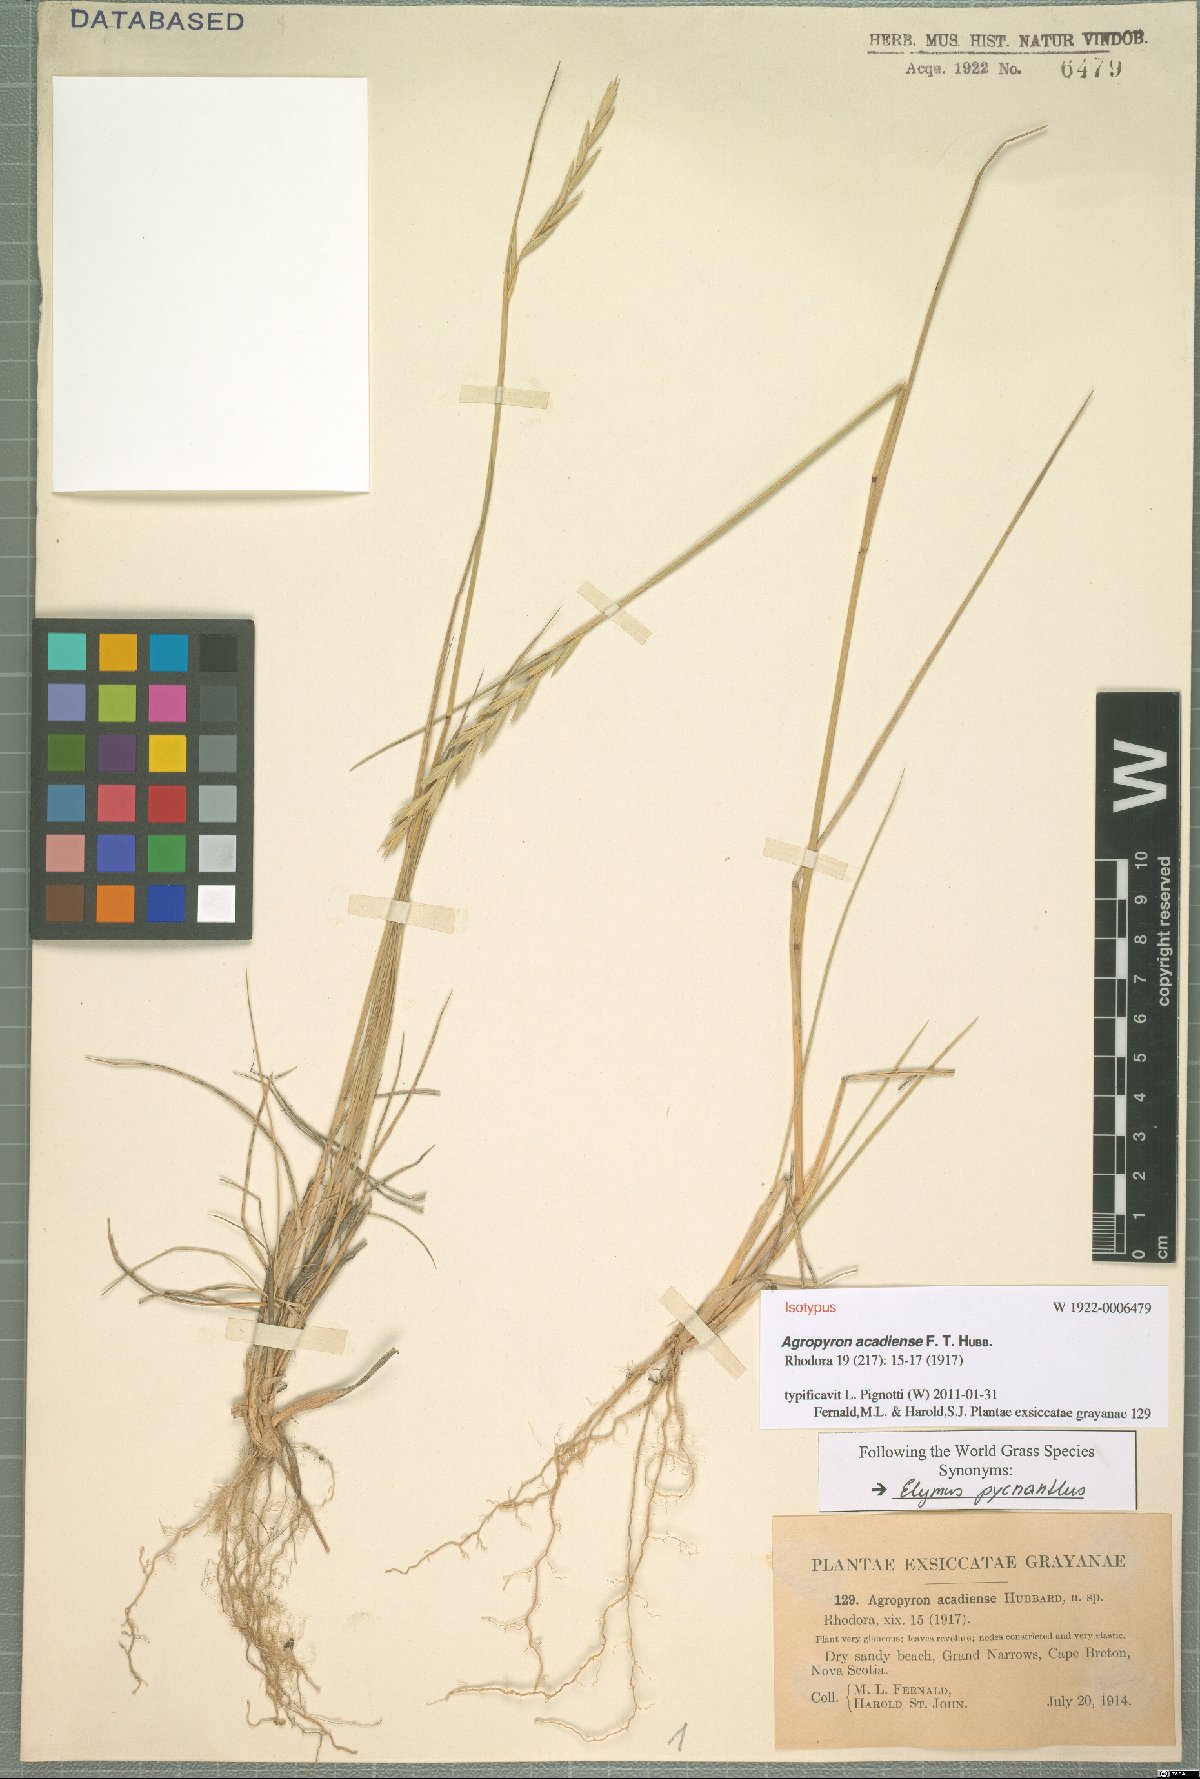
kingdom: Plantae
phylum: Tracheophyta
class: Liliopsida
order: Poales
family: Poaceae
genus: Thinopyrum
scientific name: Thinopyrum acutum
